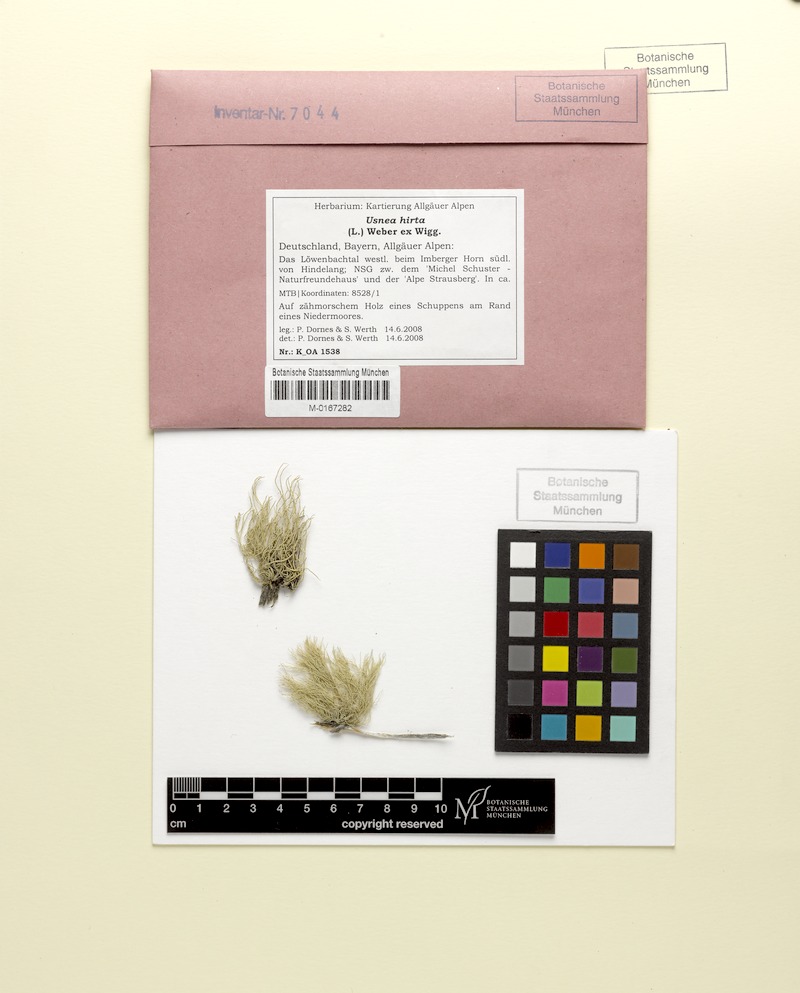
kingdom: Fungi
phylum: Ascomycota
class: Lecanoromycetes
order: Lecanorales
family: Parmeliaceae
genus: Usnea
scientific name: Usnea hirta
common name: Bristly beard lichen
